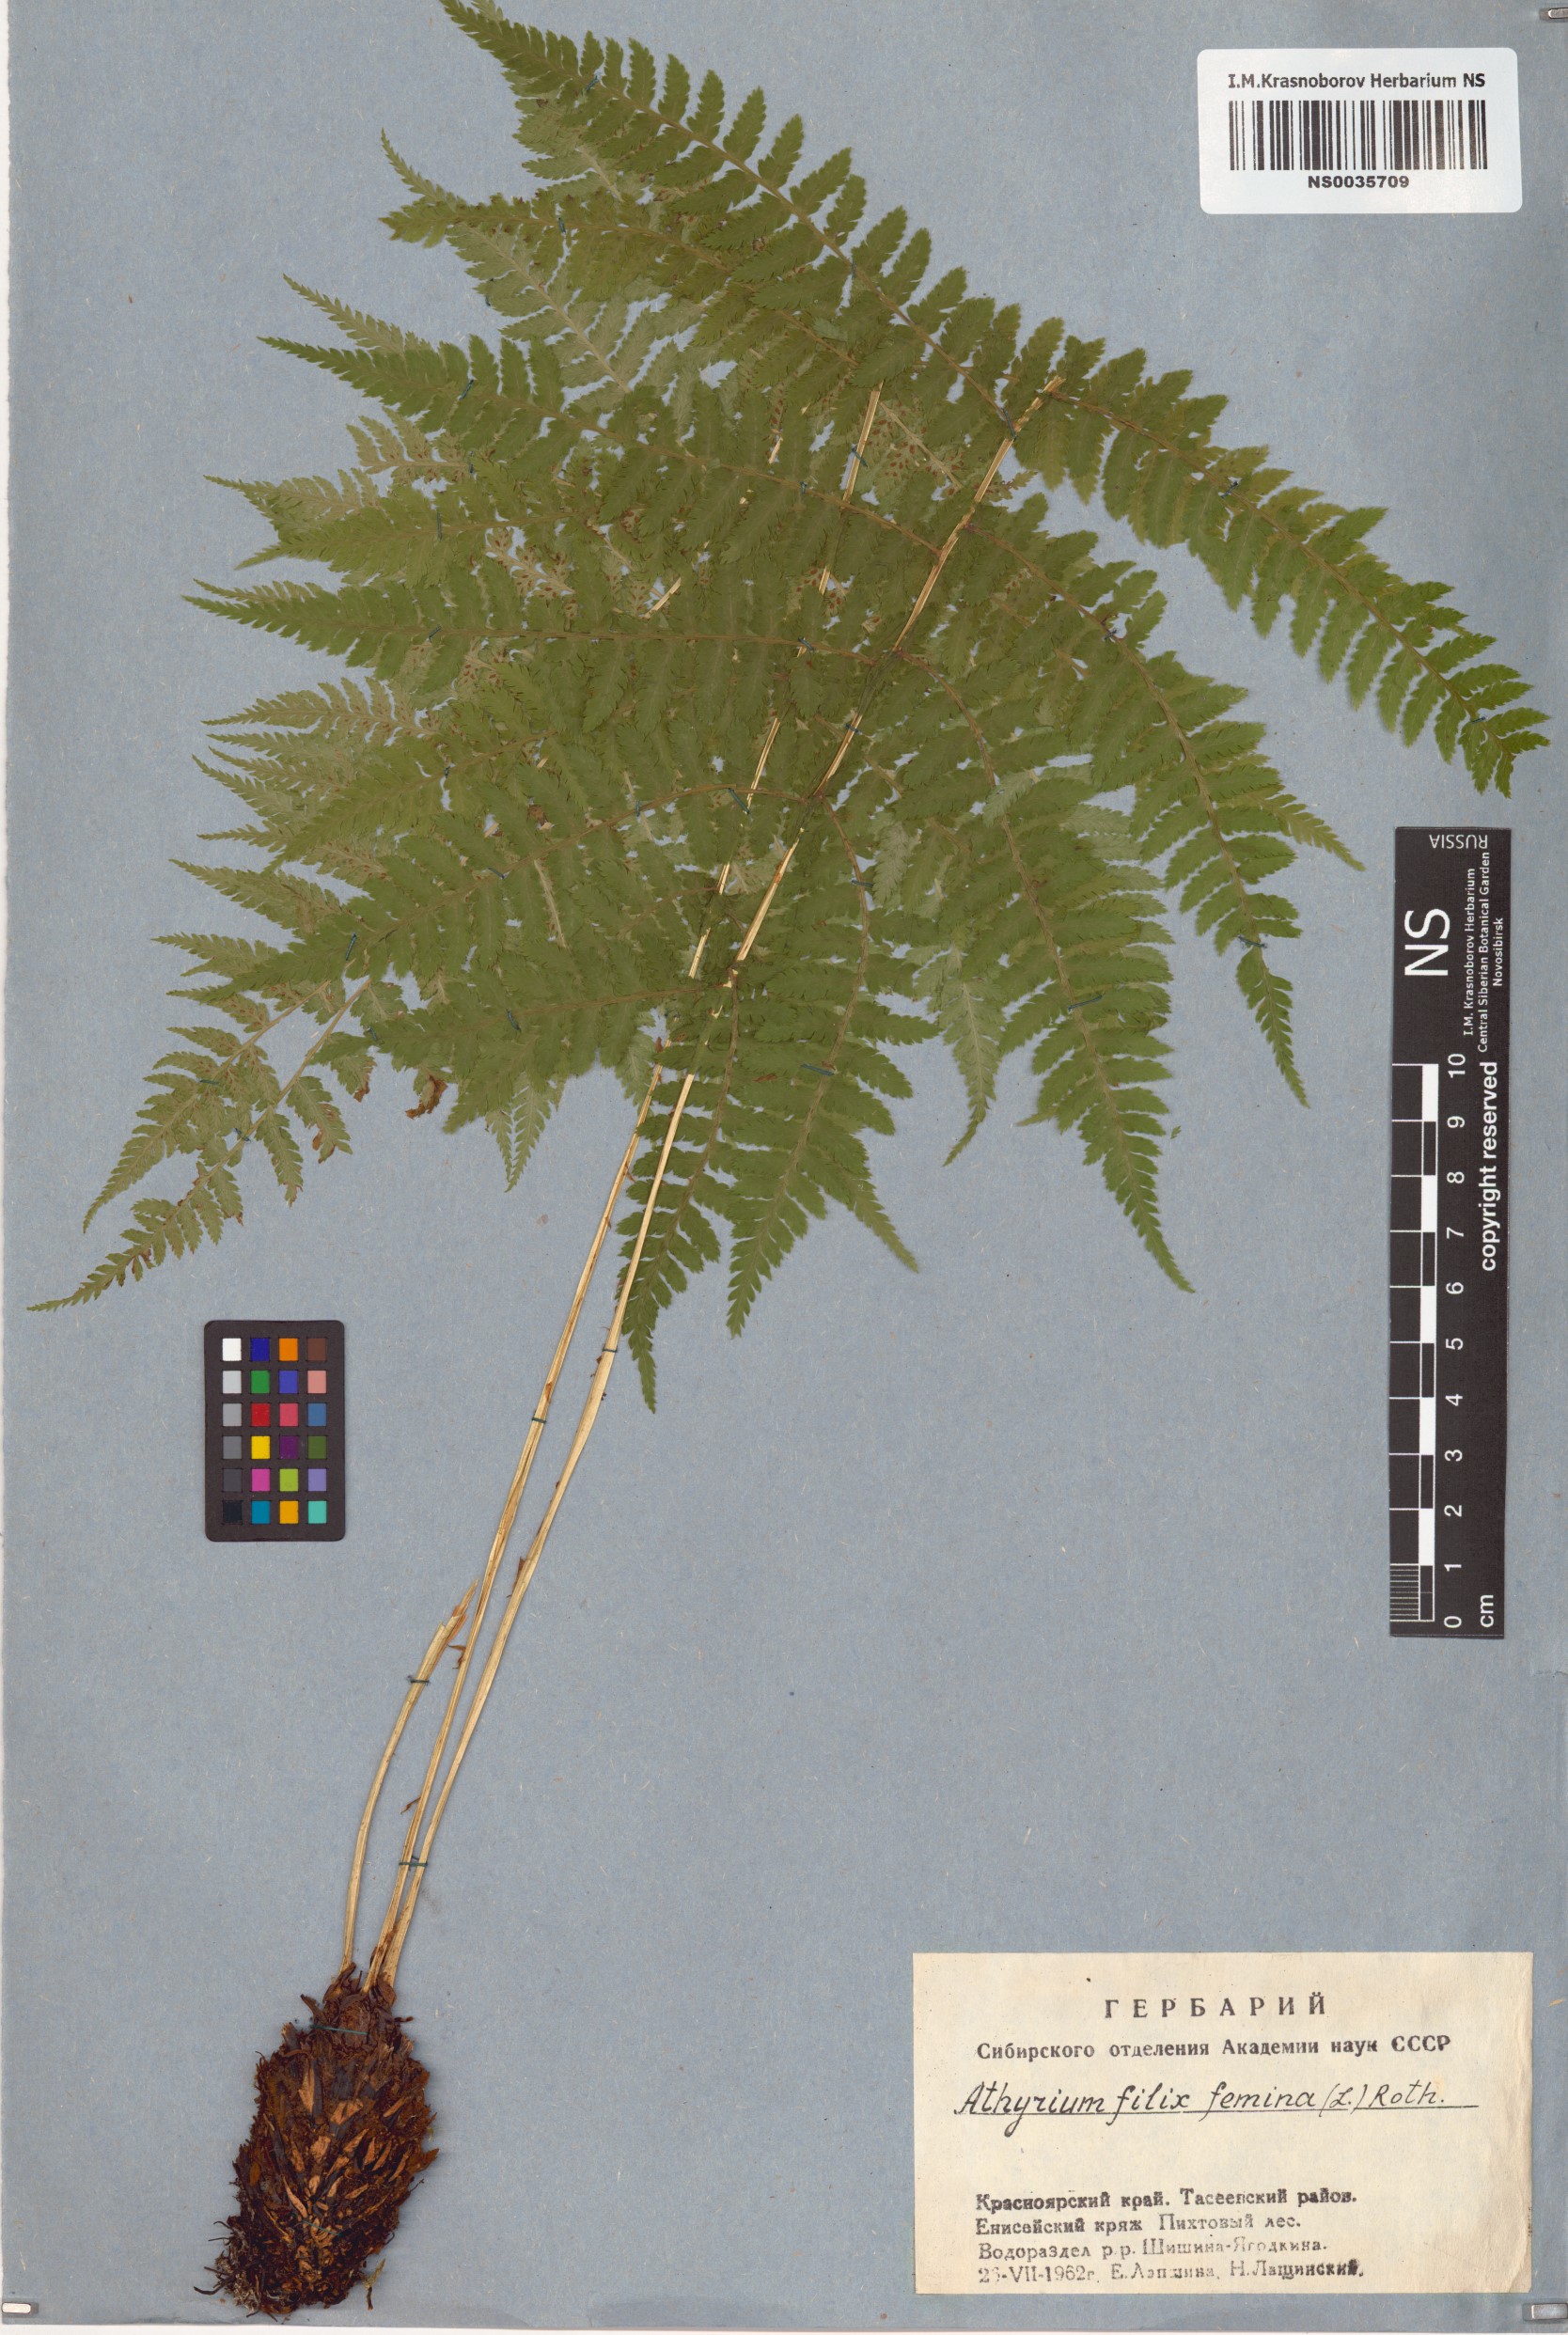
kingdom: Plantae
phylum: Tracheophyta
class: Polypodiopsida
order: Polypodiales
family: Athyriaceae
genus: Athyrium
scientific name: Athyrium filix-femina
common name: Lady fern
